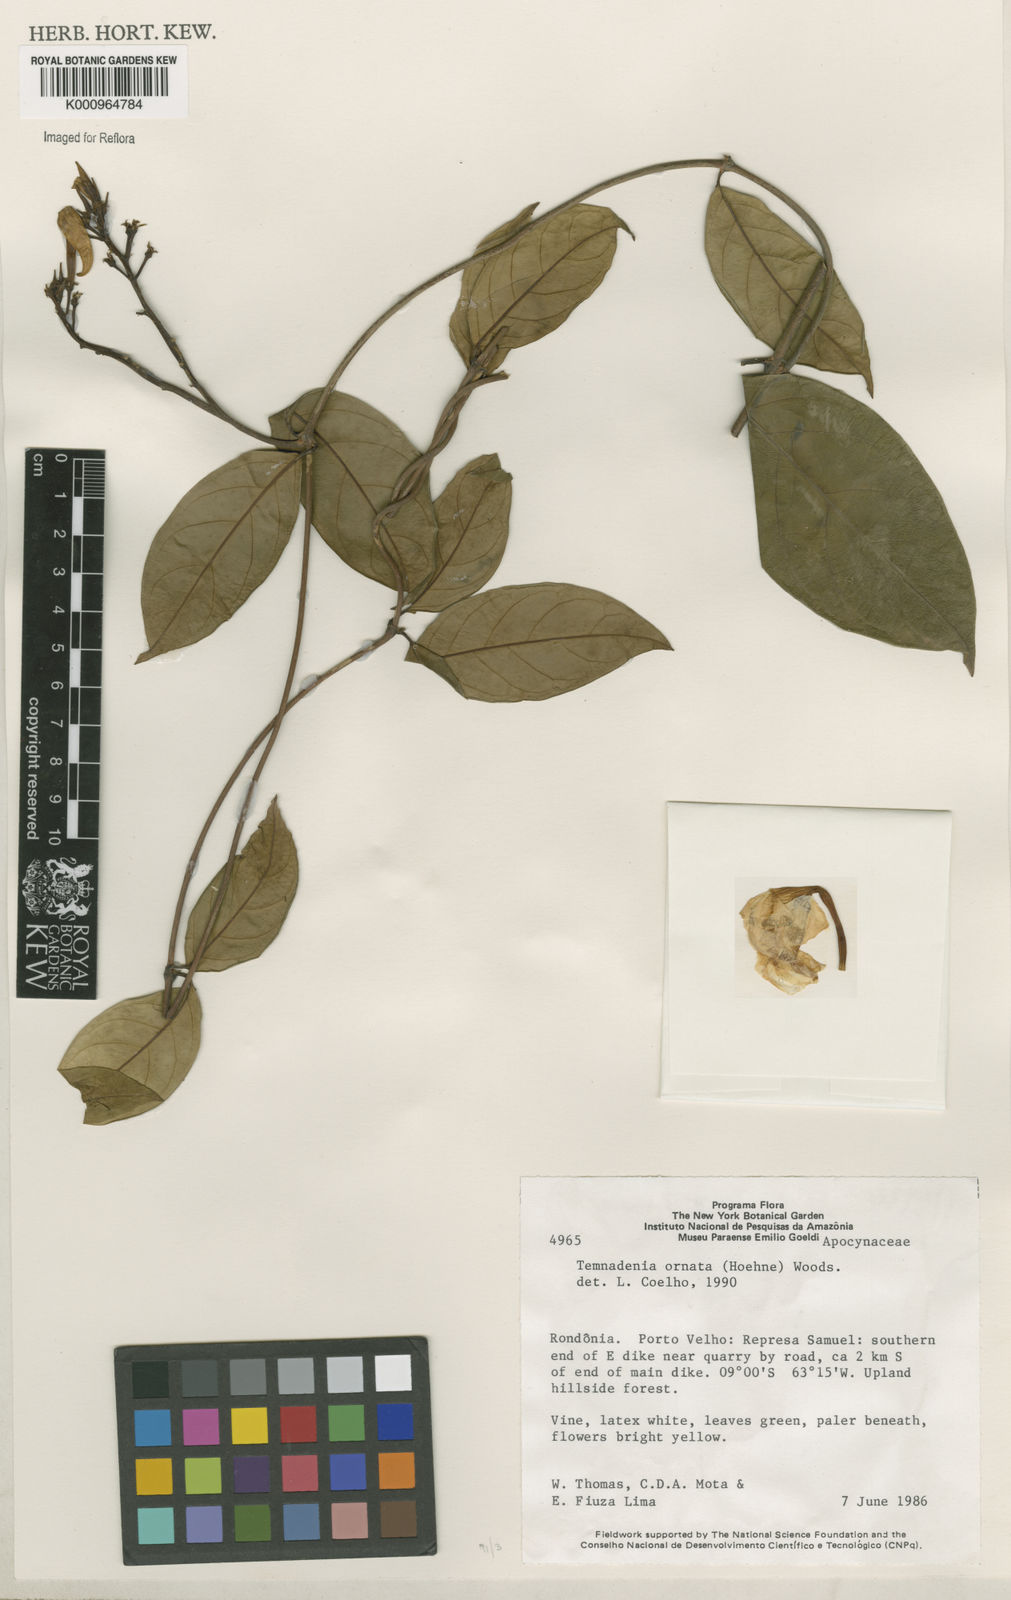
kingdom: Plantae
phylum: Tracheophyta
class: Magnoliopsida
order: Gentianales
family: Apocynaceae
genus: Prestonia
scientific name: Prestonia ornata
